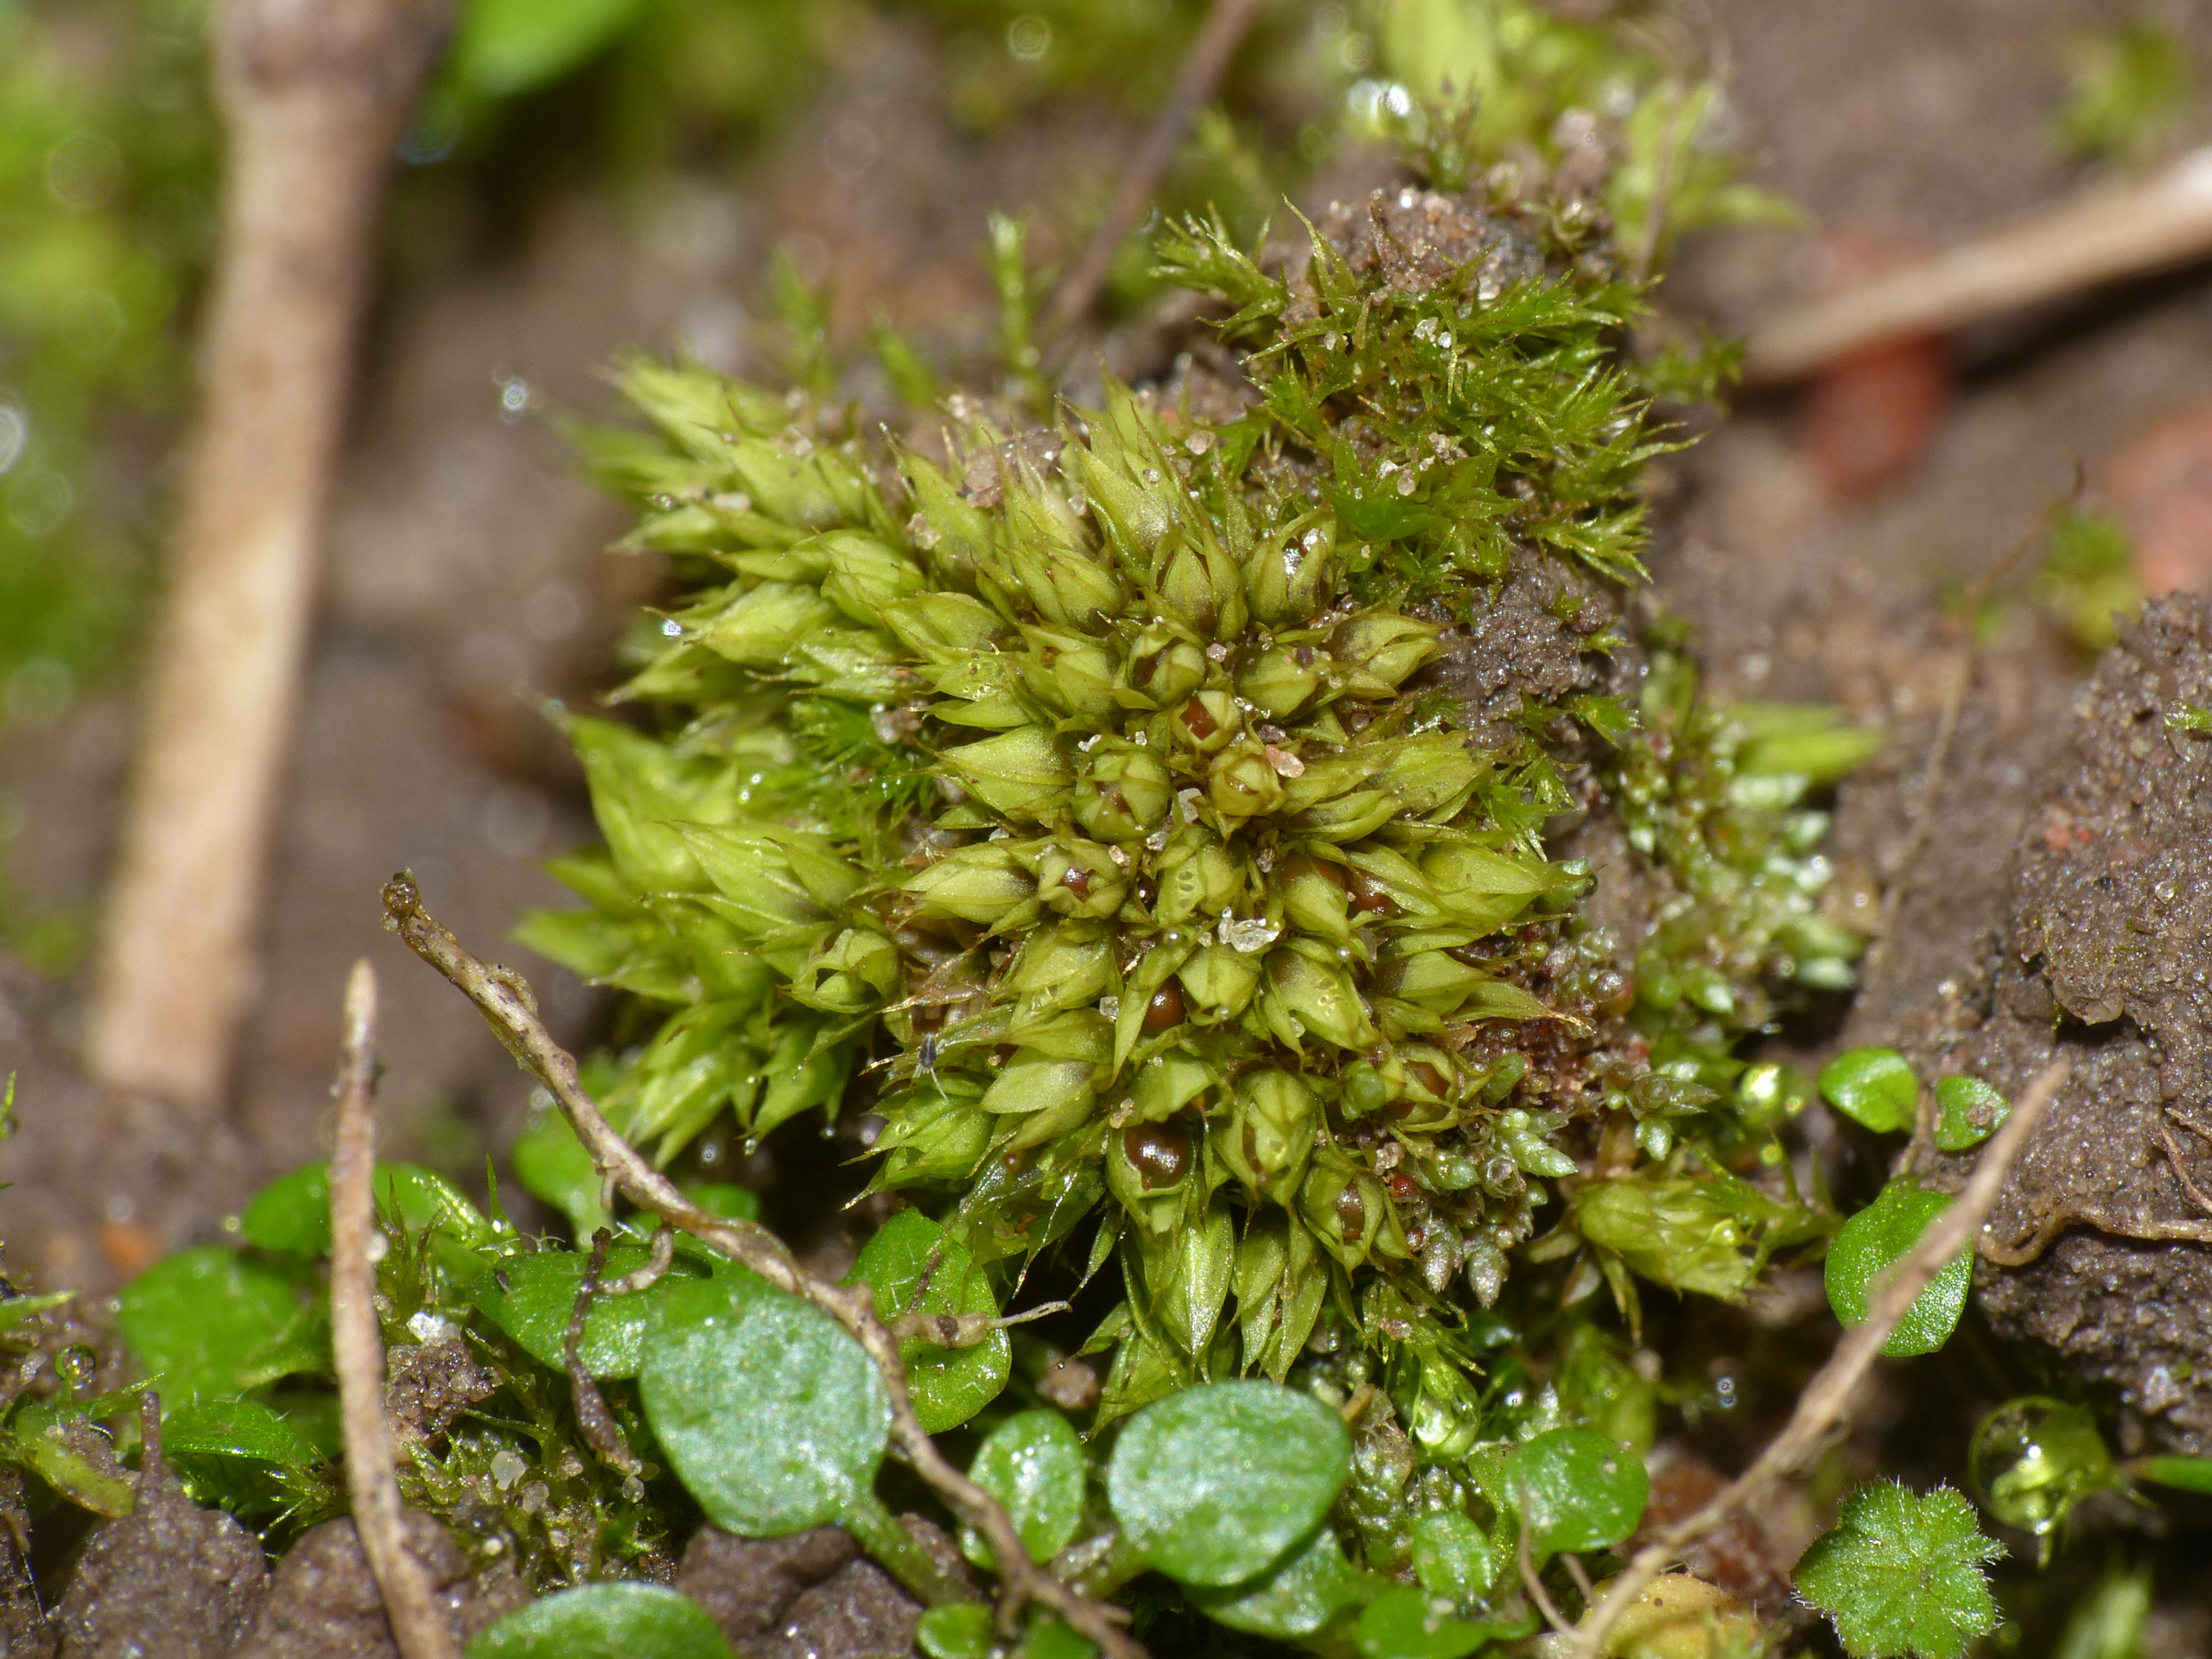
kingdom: Plantae
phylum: Bryophyta
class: Bryopsida
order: Pottiales
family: Pottiaceae
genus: Tortula
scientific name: Tortula acaulon
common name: Tilspidset dværgmos
